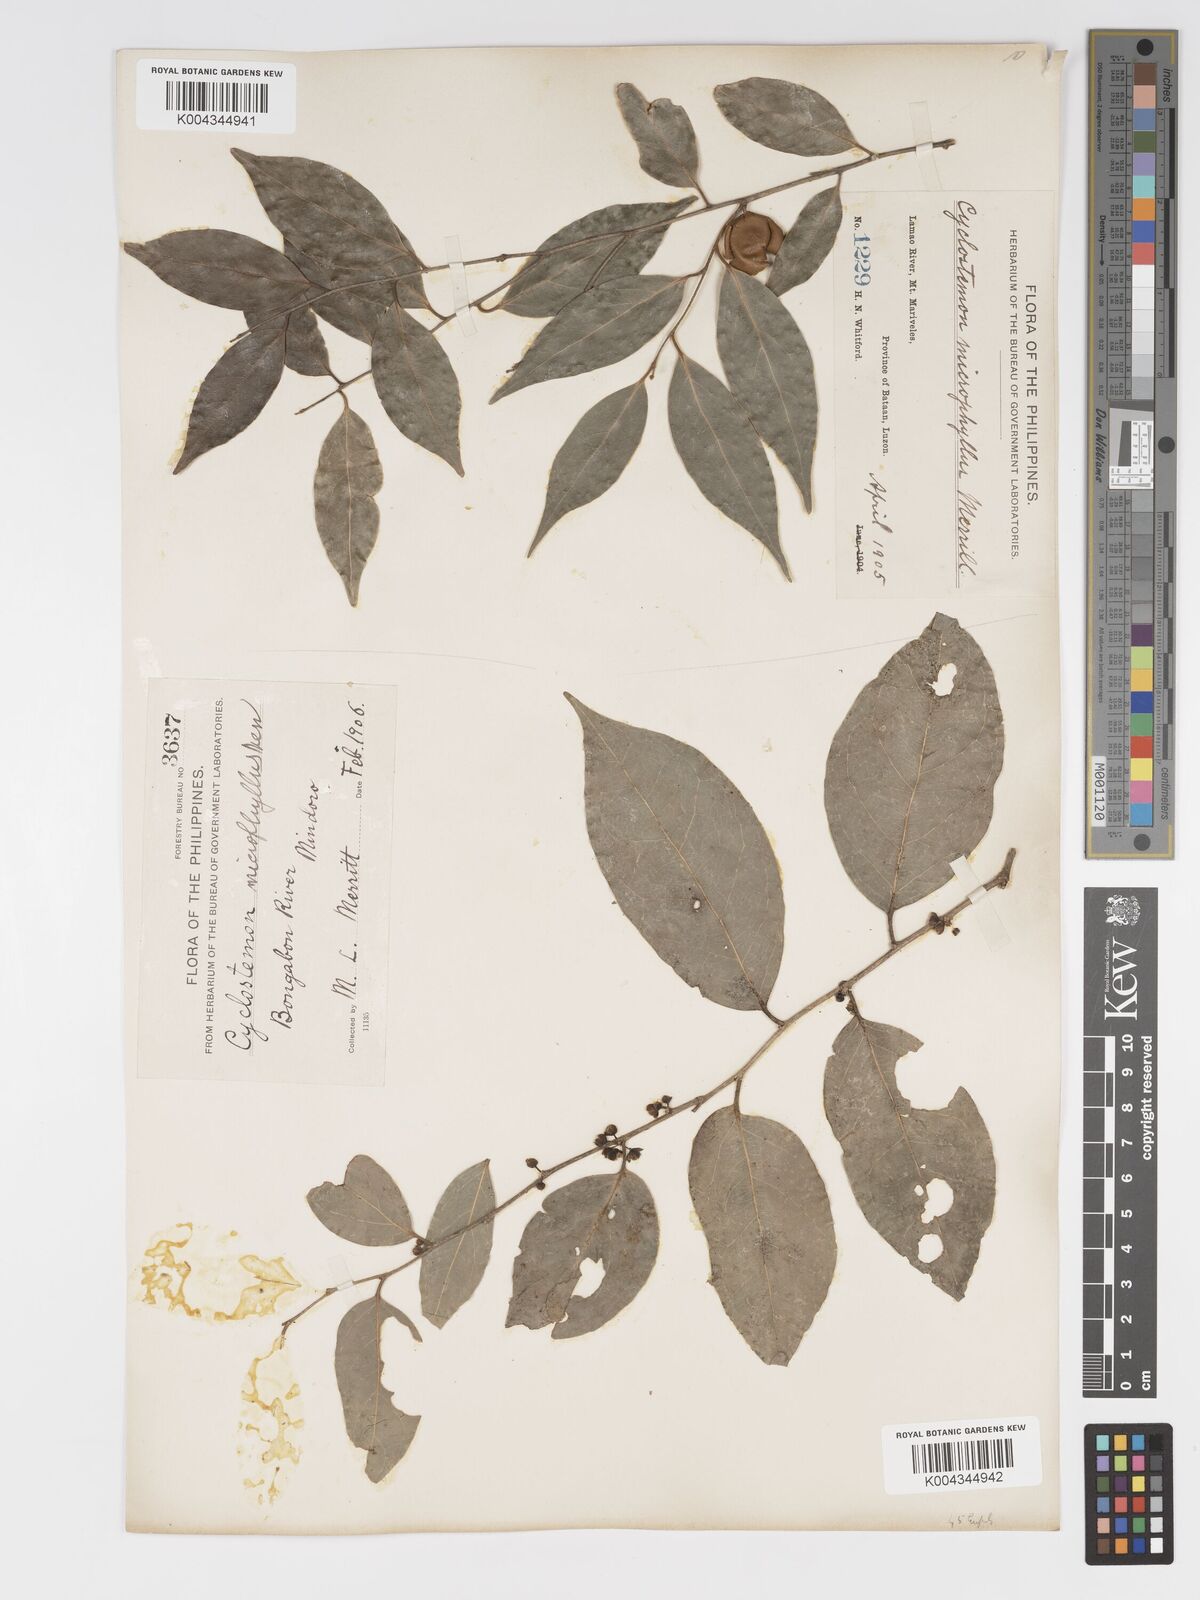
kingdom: Plantae
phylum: Tracheophyta
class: Magnoliopsida
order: Malpighiales
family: Putranjivaceae
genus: Drypetes
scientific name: Drypetes microphylla
